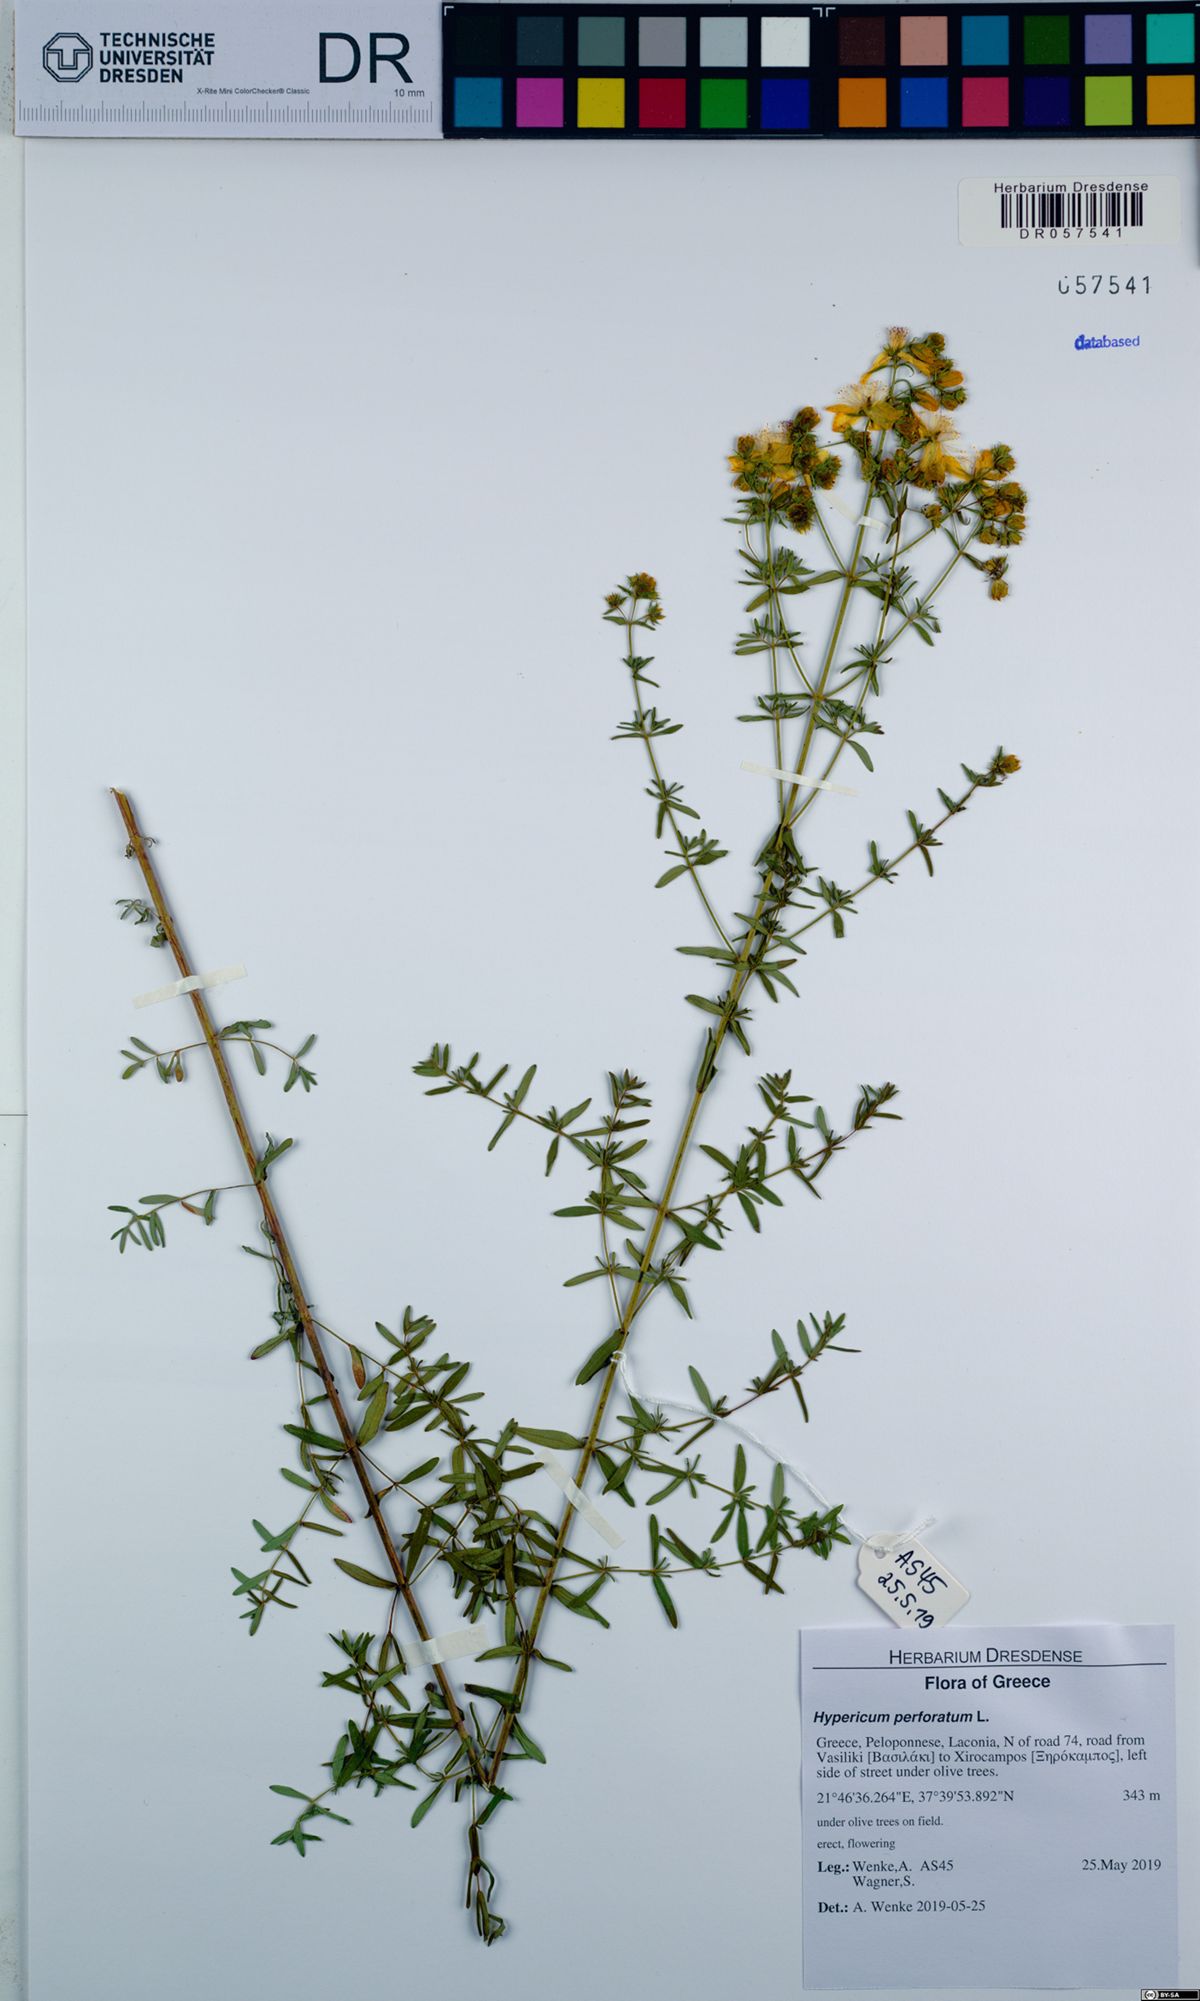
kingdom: Plantae
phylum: Tracheophyta
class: Magnoliopsida
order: Malpighiales
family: Hypericaceae
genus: Hypericum
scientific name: Hypericum perforatum
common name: Common st. johnswort
